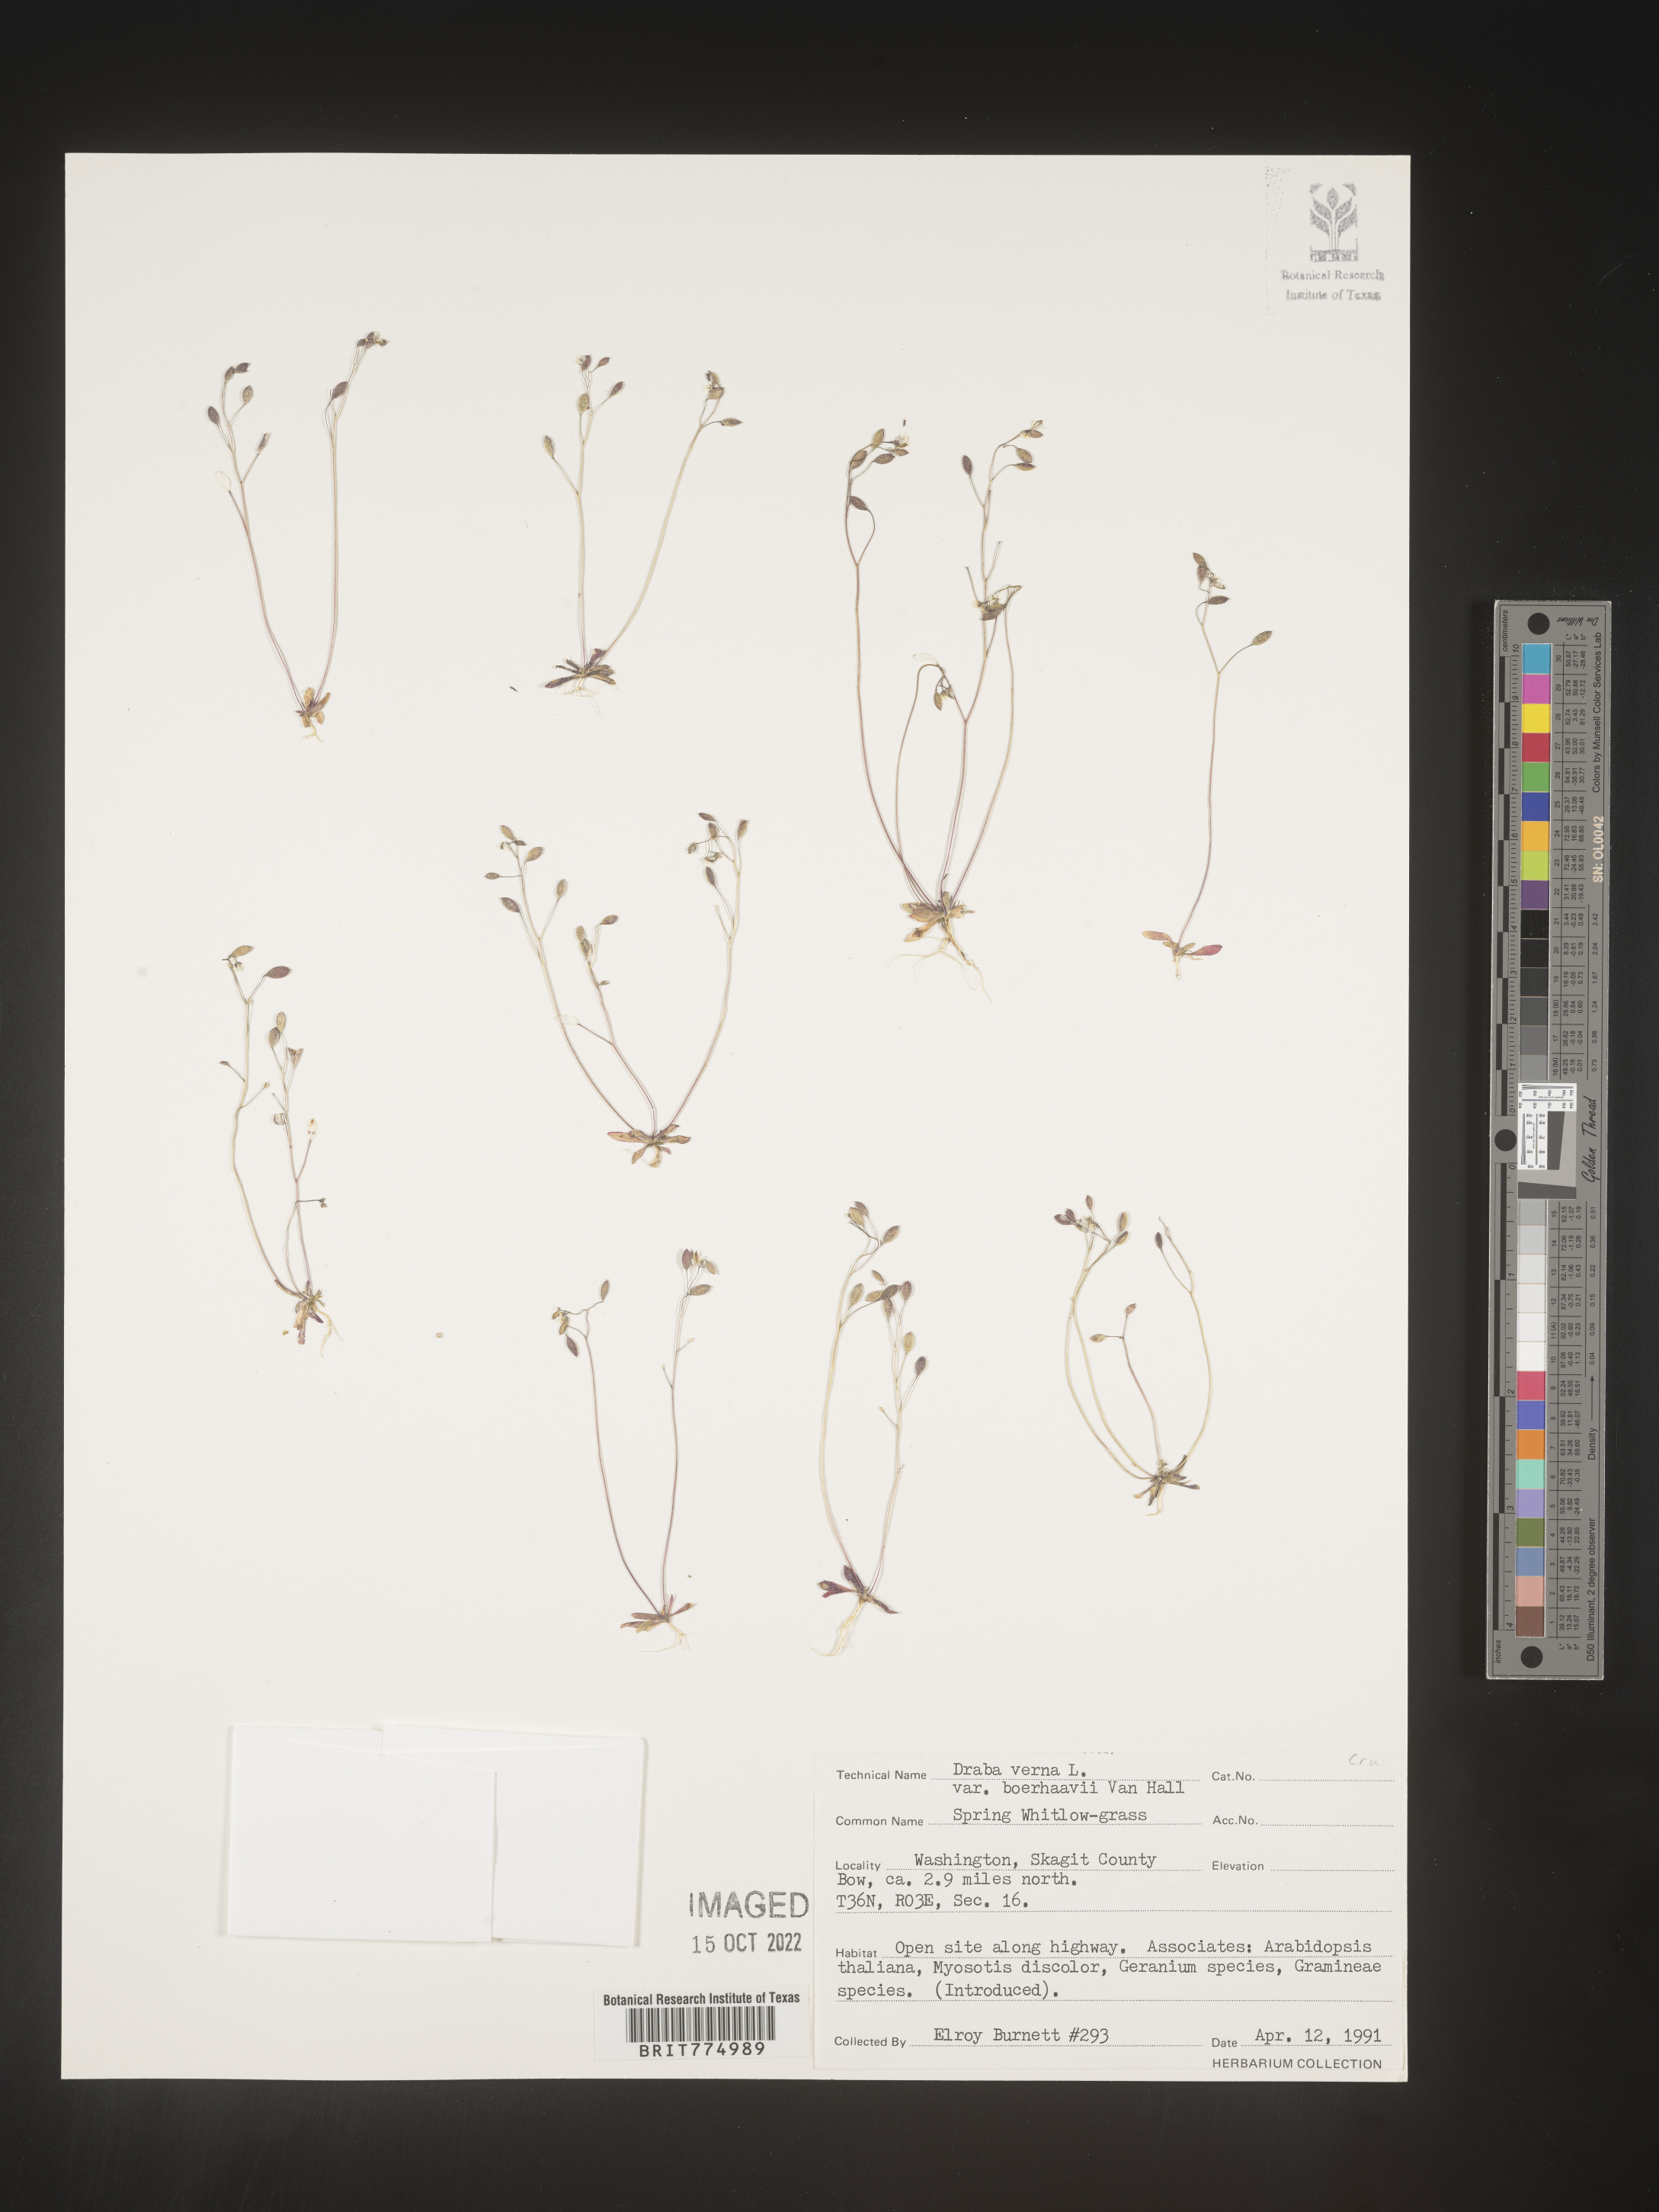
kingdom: Plantae
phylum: Tracheophyta
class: Magnoliopsida
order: Brassicales
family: Brassicaceae
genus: Draba
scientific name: Draba verna
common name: Spring draba
